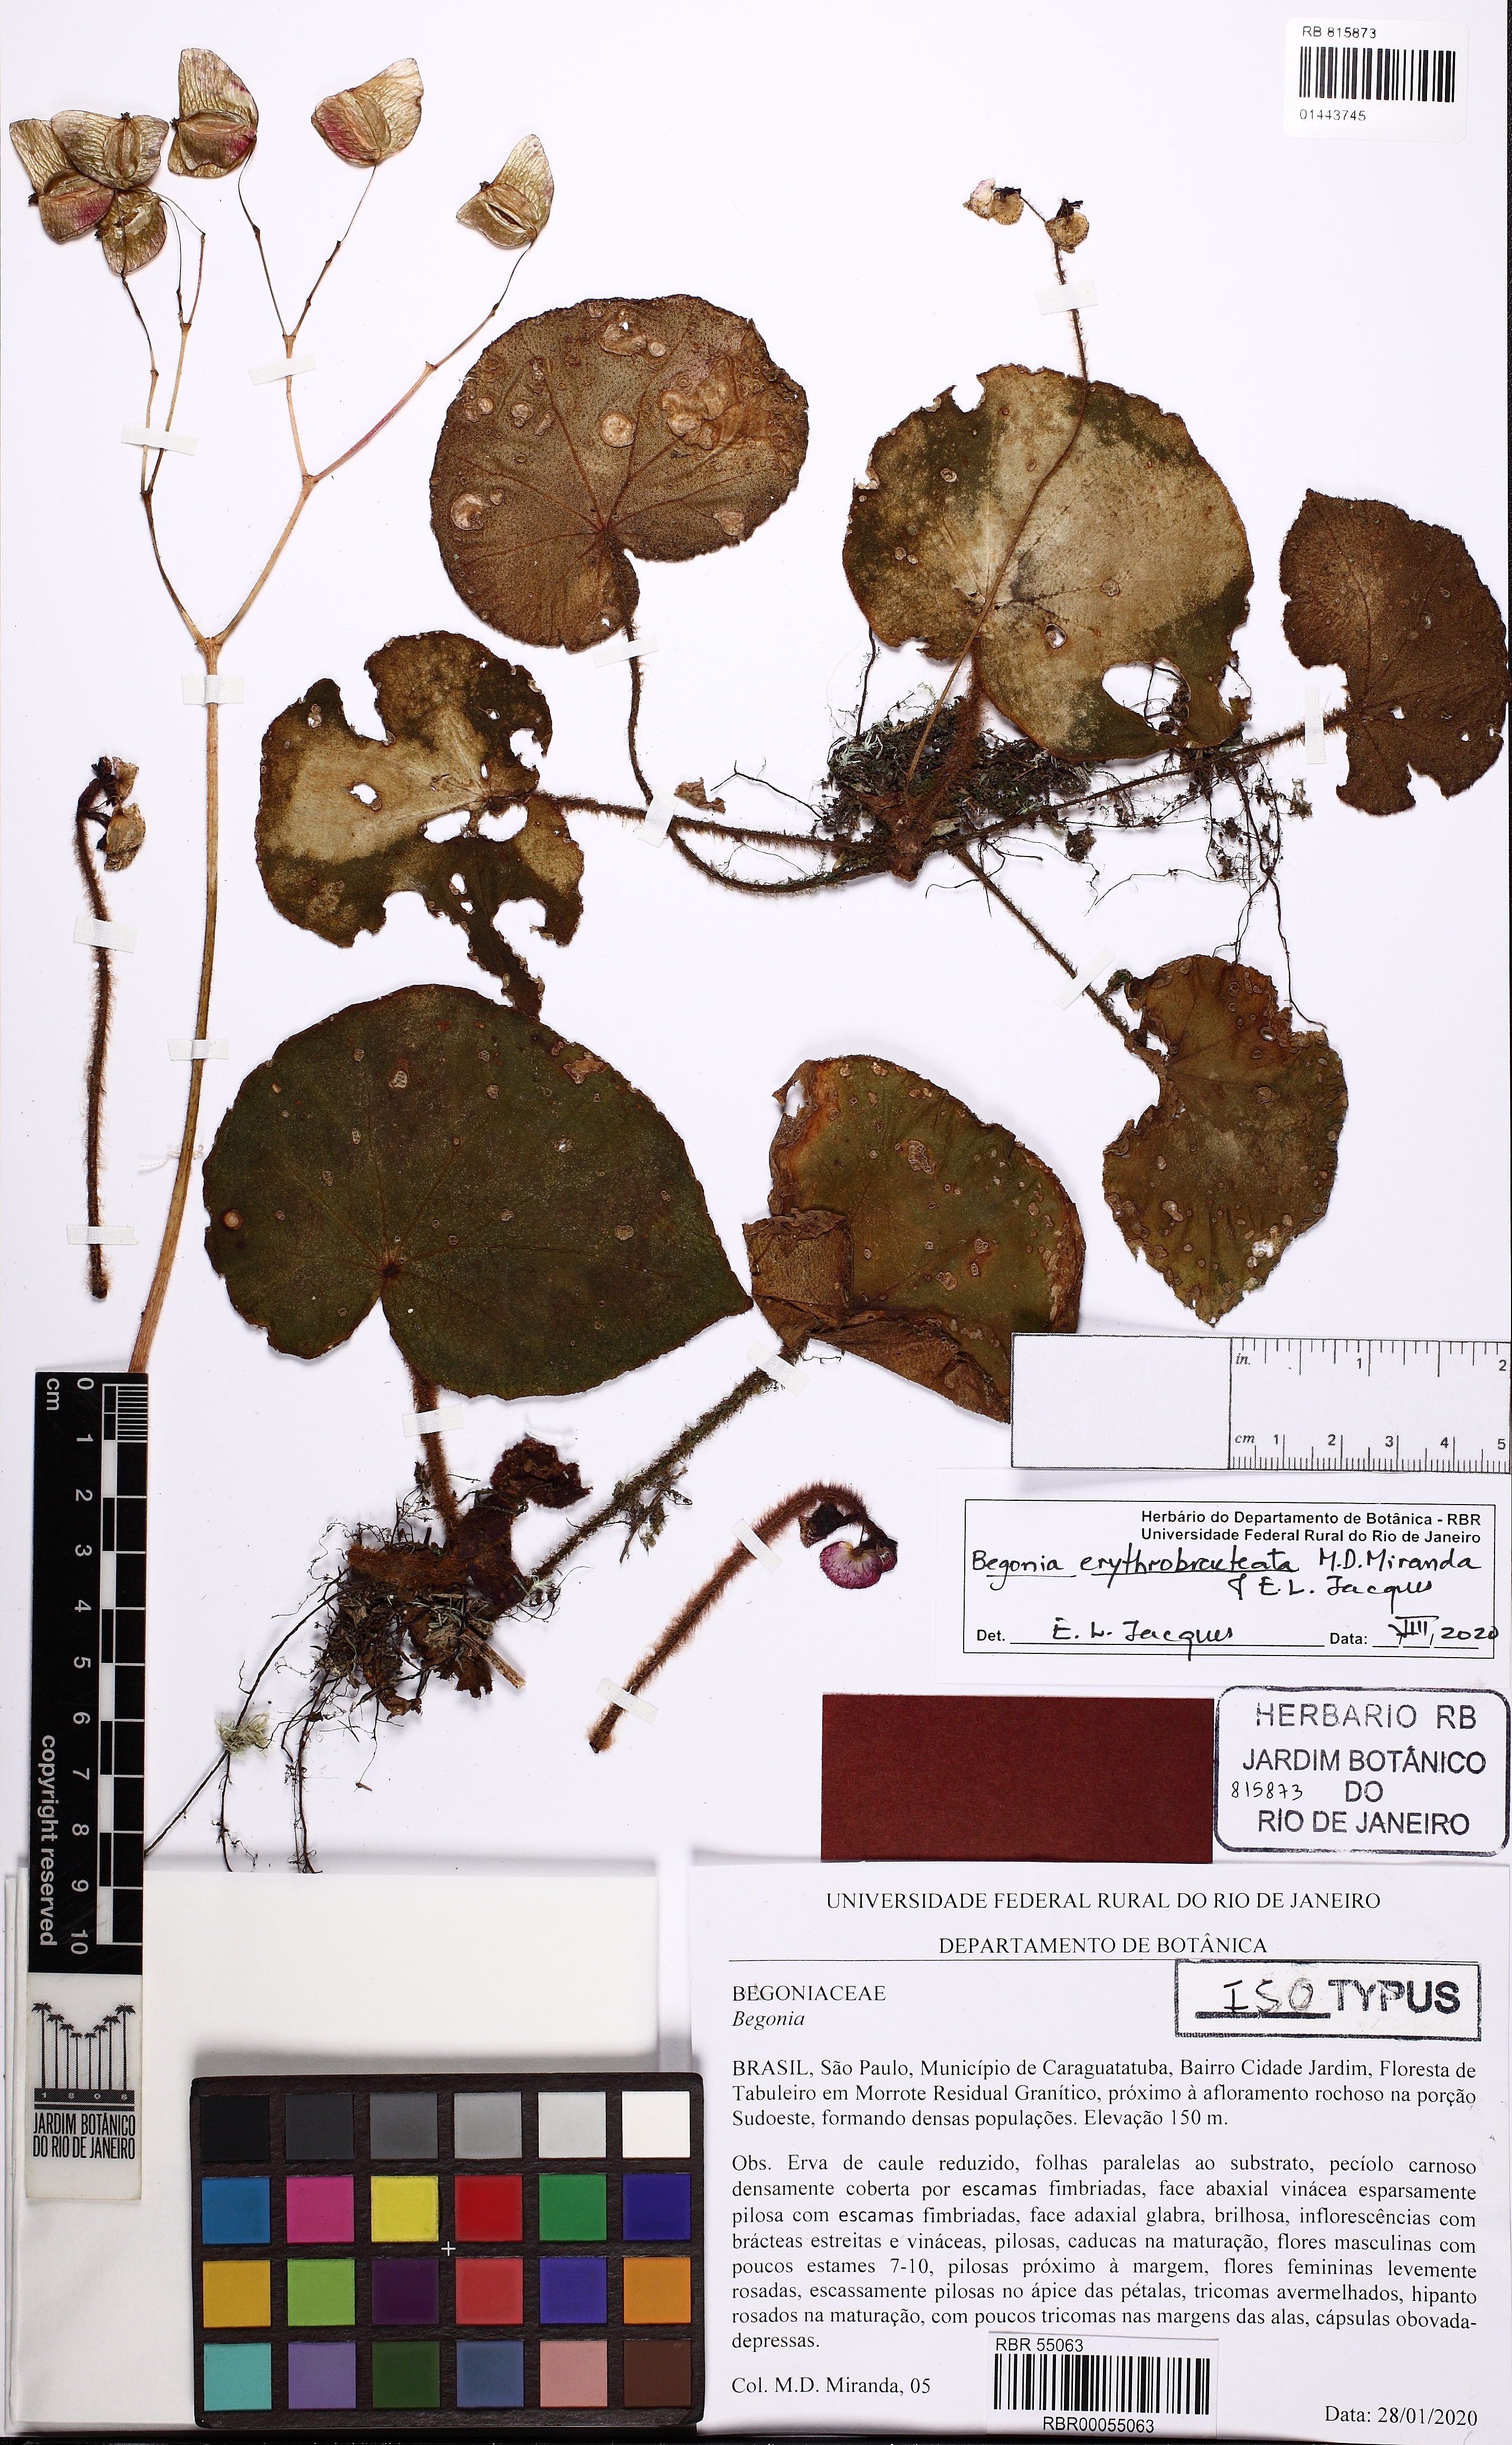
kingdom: Plantae
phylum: Tracheophyta
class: Magnoliopsida
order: Cucurbitales
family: Begoniaceae
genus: Begonia
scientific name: Begonia erythrobracteata
